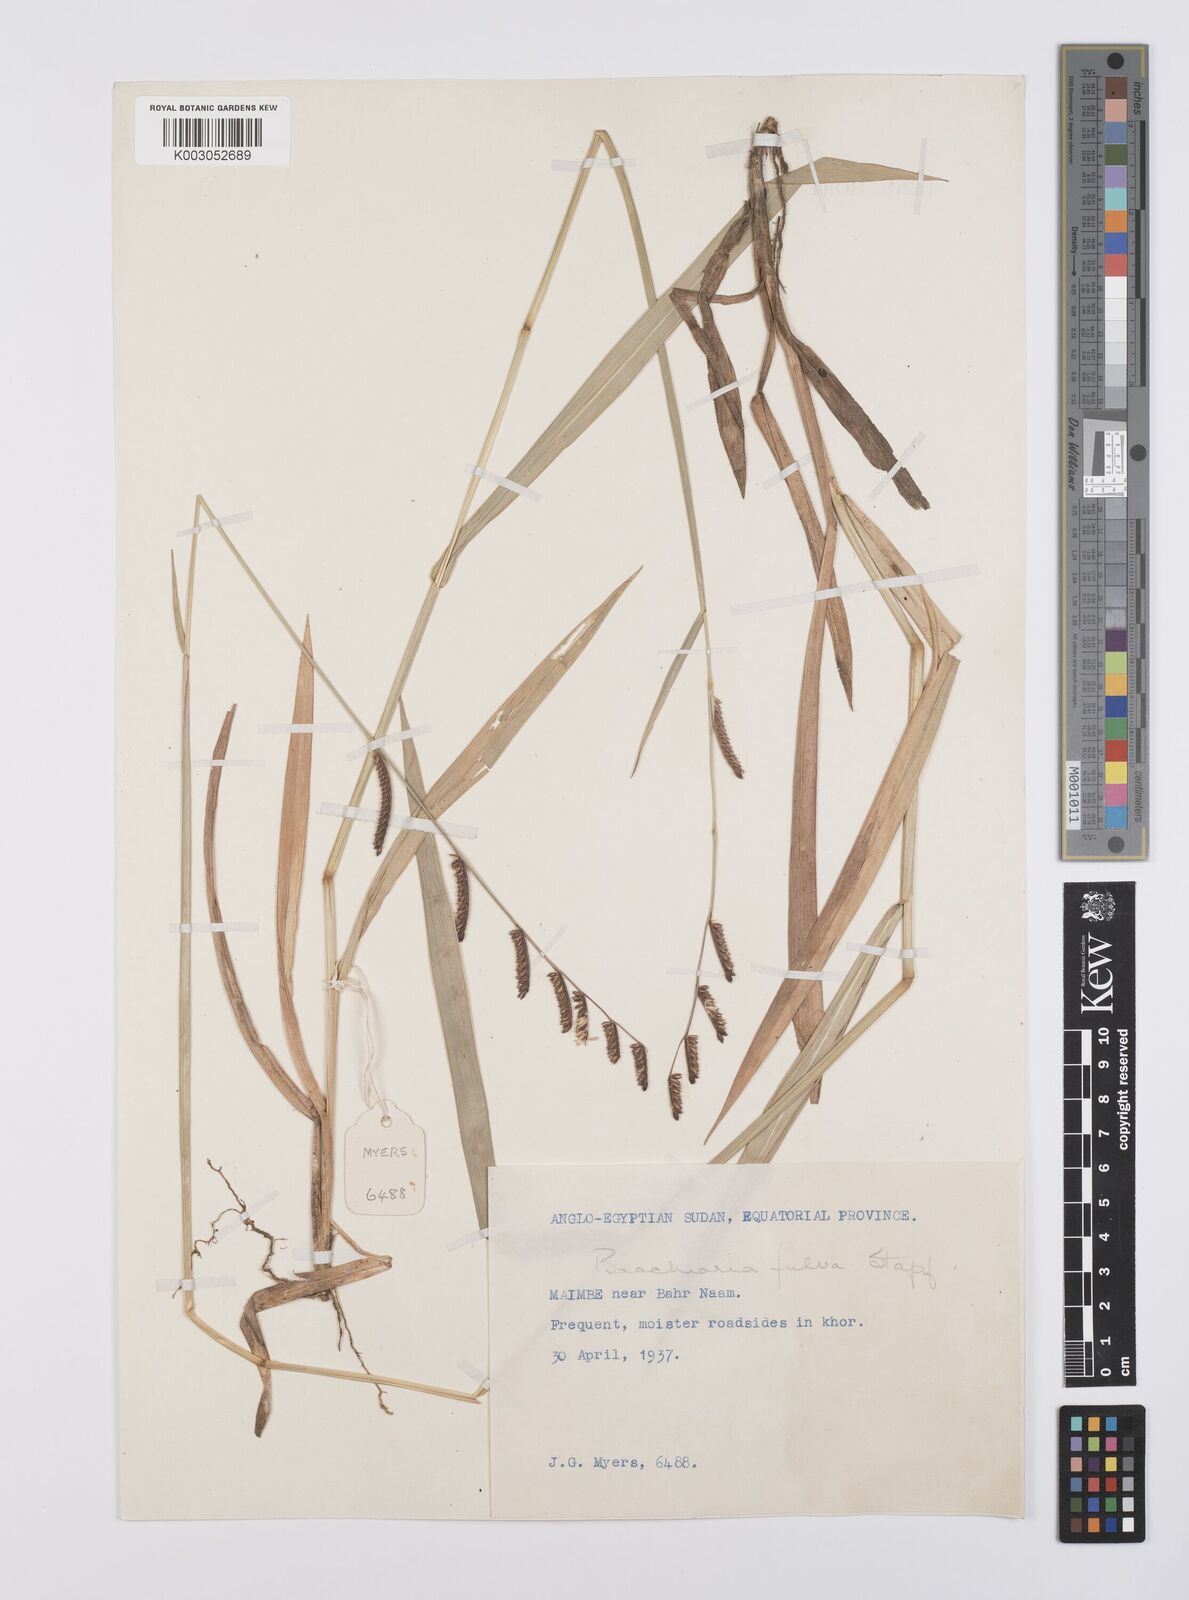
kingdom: Plantae
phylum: Tracheophyta
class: Liliopsida
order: Poales
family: Poaceae
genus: Urochloa
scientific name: Urochloa jubata
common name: Buffalograss
